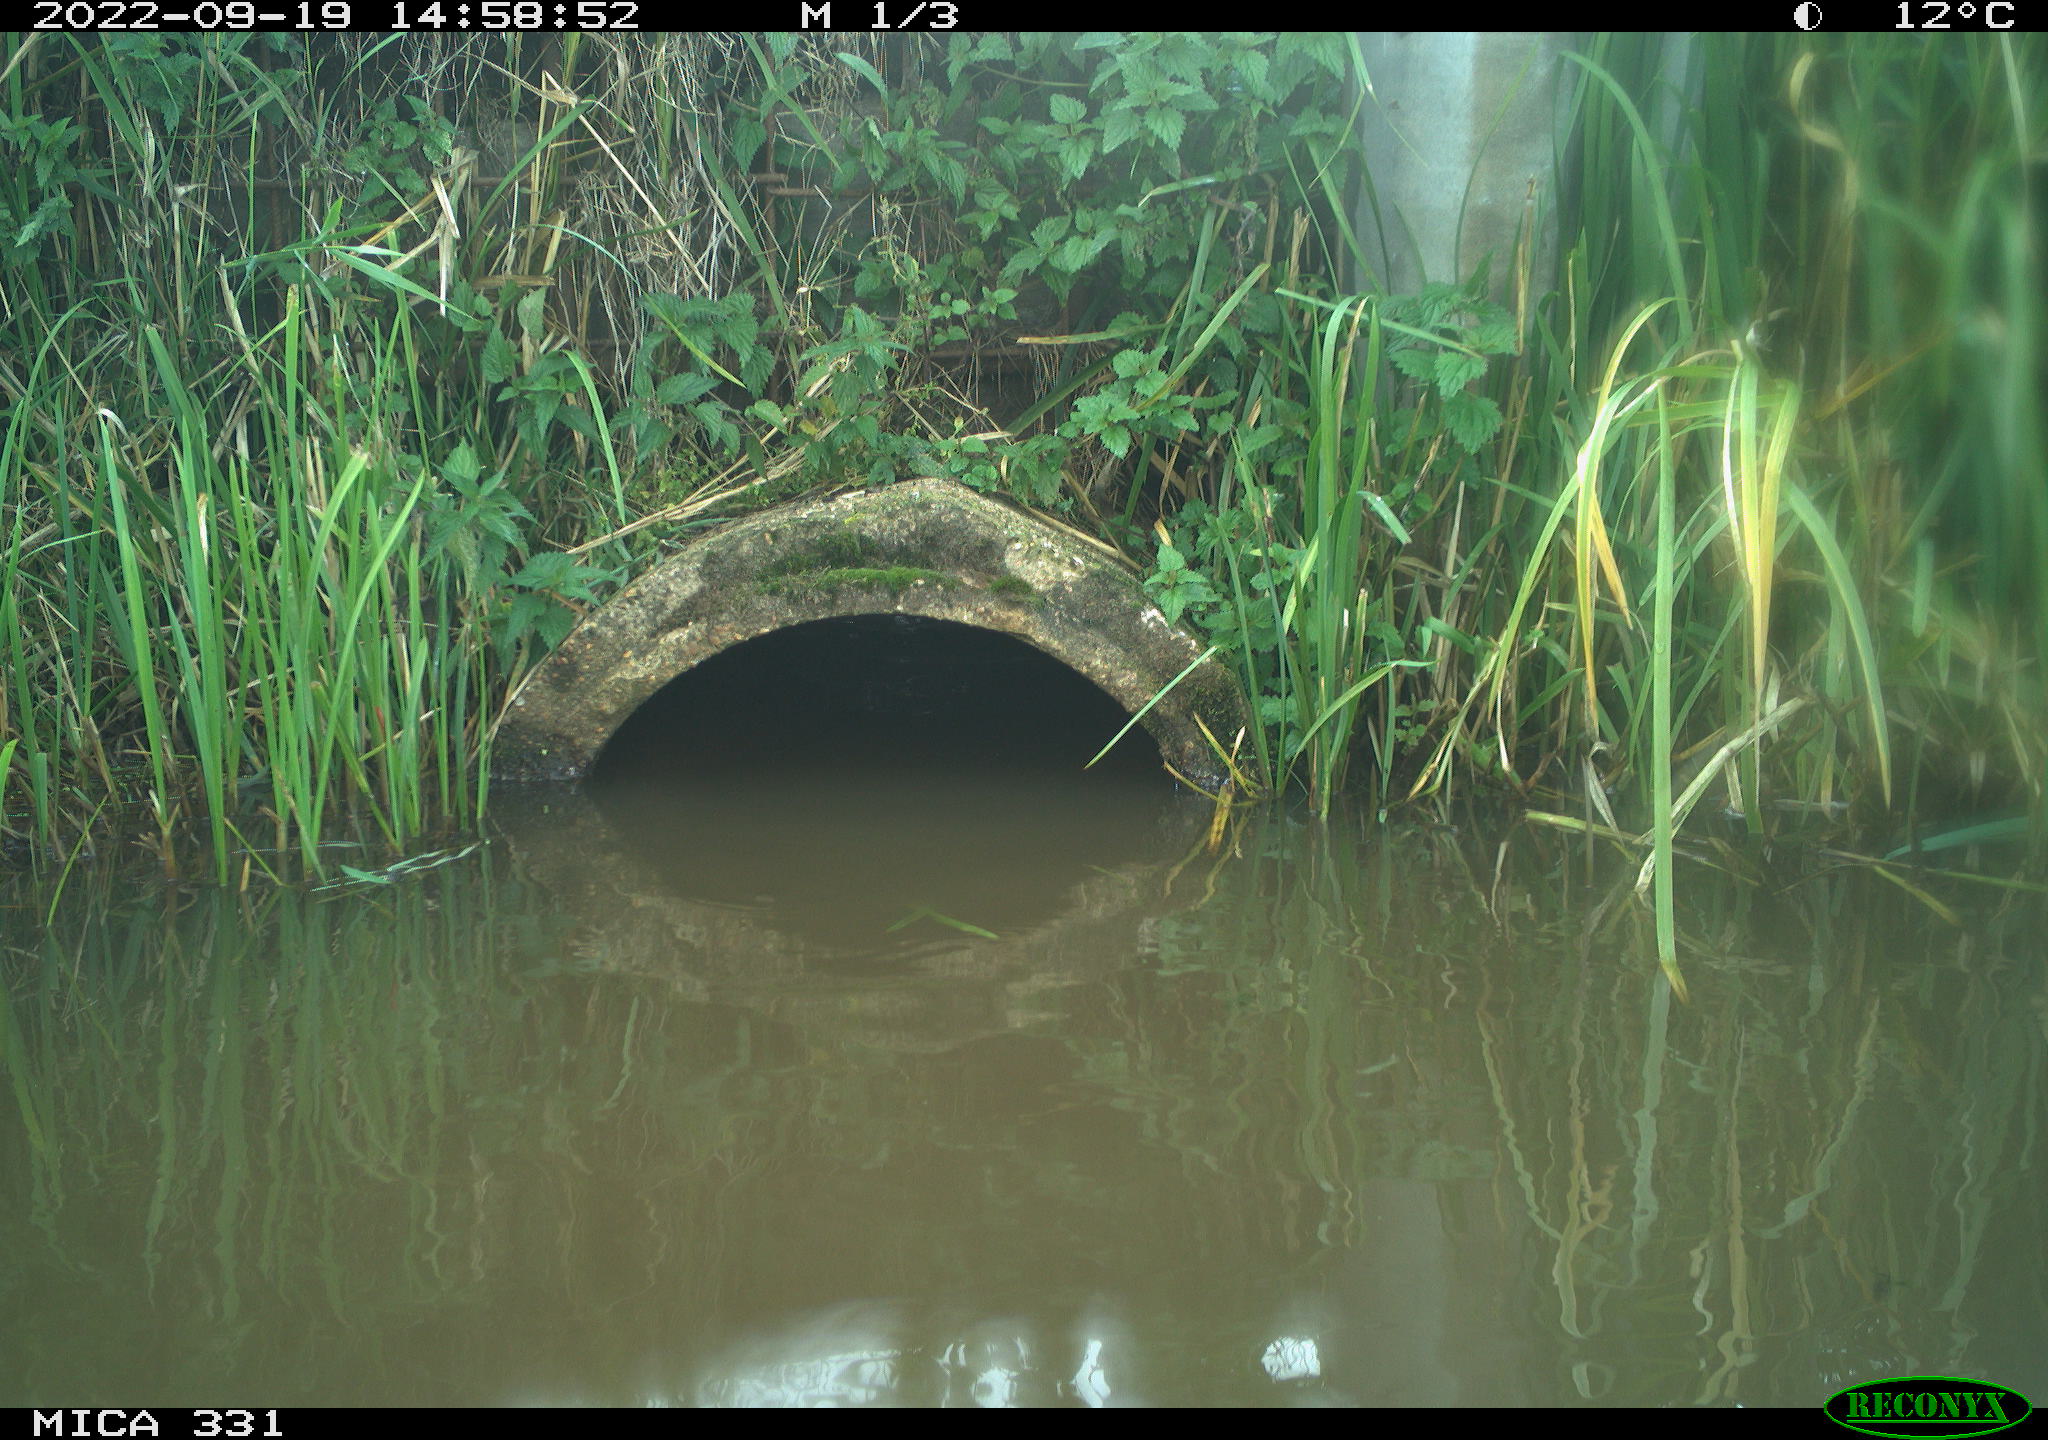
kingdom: Animalia
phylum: Chordata
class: Aves
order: Anseriformes
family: Anatidae
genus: Cygnus
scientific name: Cygnus olor
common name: Mute swan
